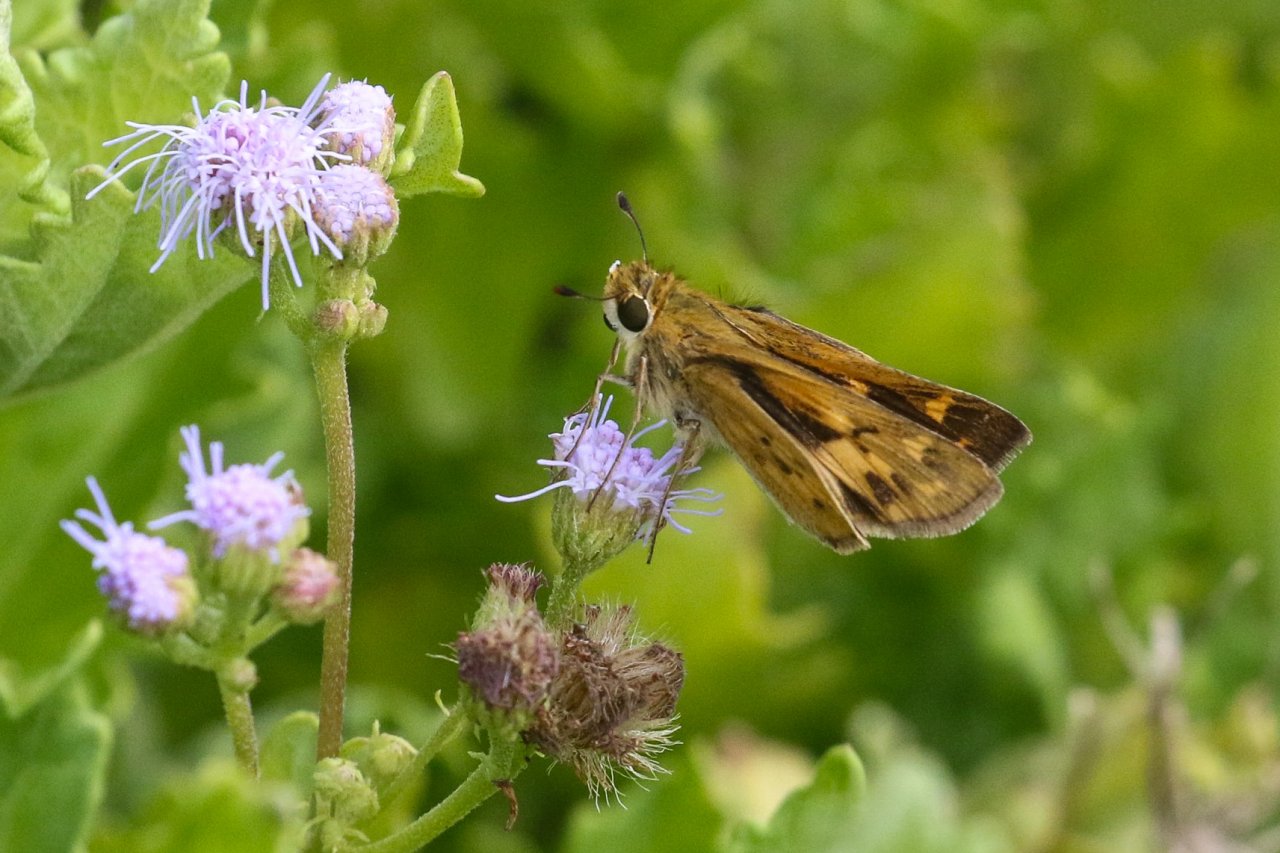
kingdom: Animalia
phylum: Arthropoda
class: Insecta
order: Lepidoptera
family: Hesperiidae
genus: Hylephila
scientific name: Hylephila phyleus
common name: Fiery Skipper
